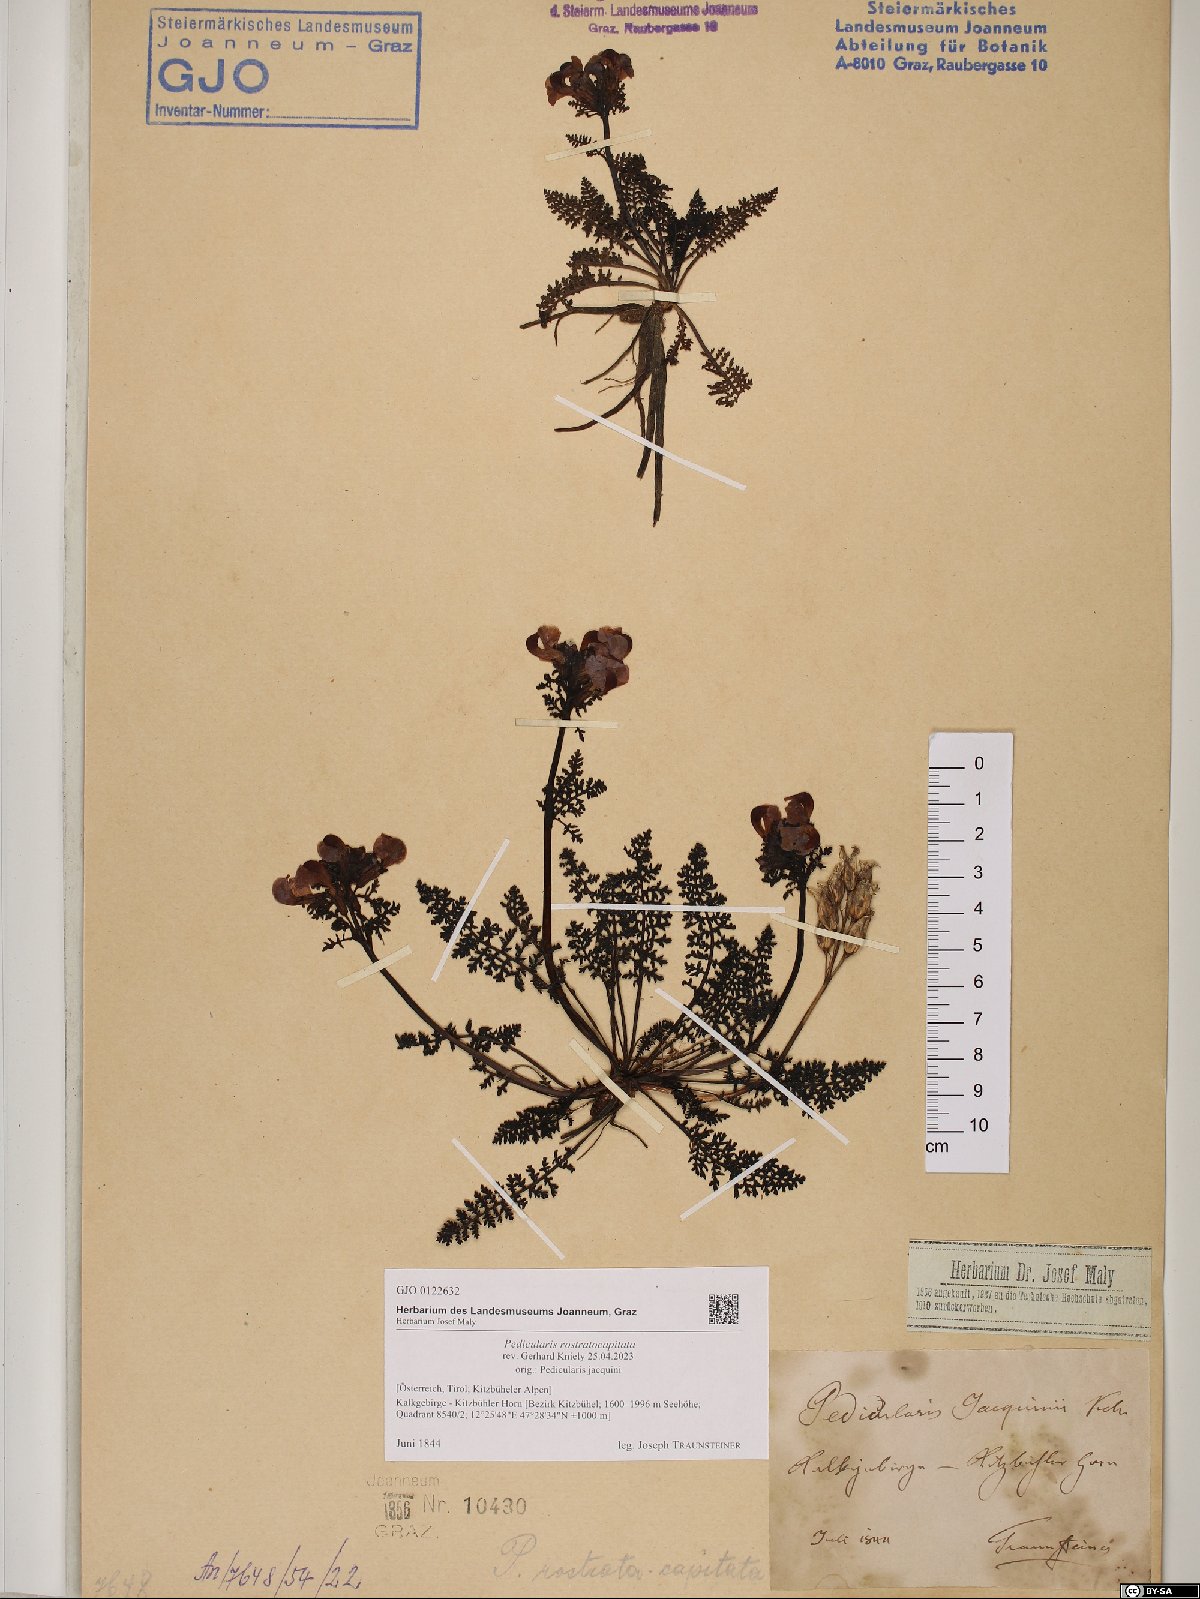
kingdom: Plantae
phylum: Tracheophyta
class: Magnoliopsida
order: Lamiales
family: Orobanchaceae
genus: Pedicularis
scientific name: Pedicularis rostratocapitata
